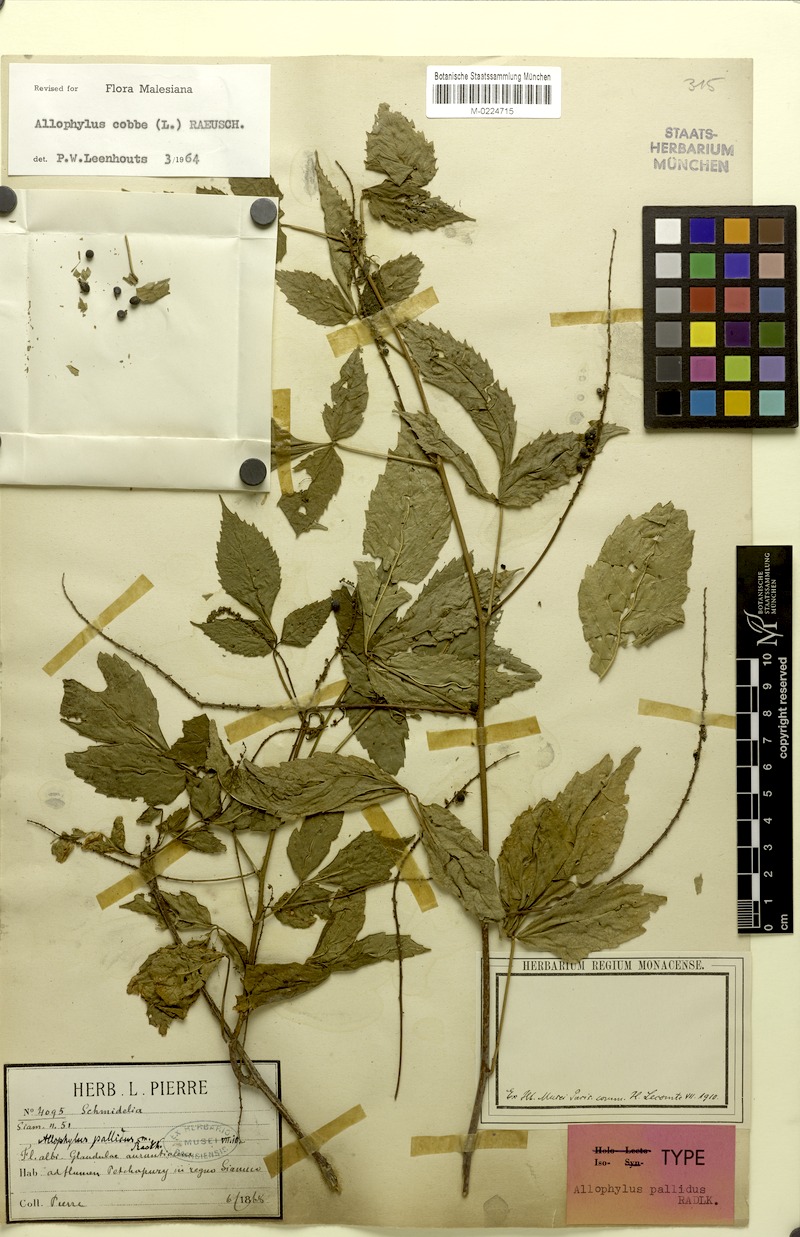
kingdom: Plantae
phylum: Tracheophyta
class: Magnoliopsida
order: Sapindales
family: Sapindaceae
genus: Allophylus
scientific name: Allophylus pallidus
